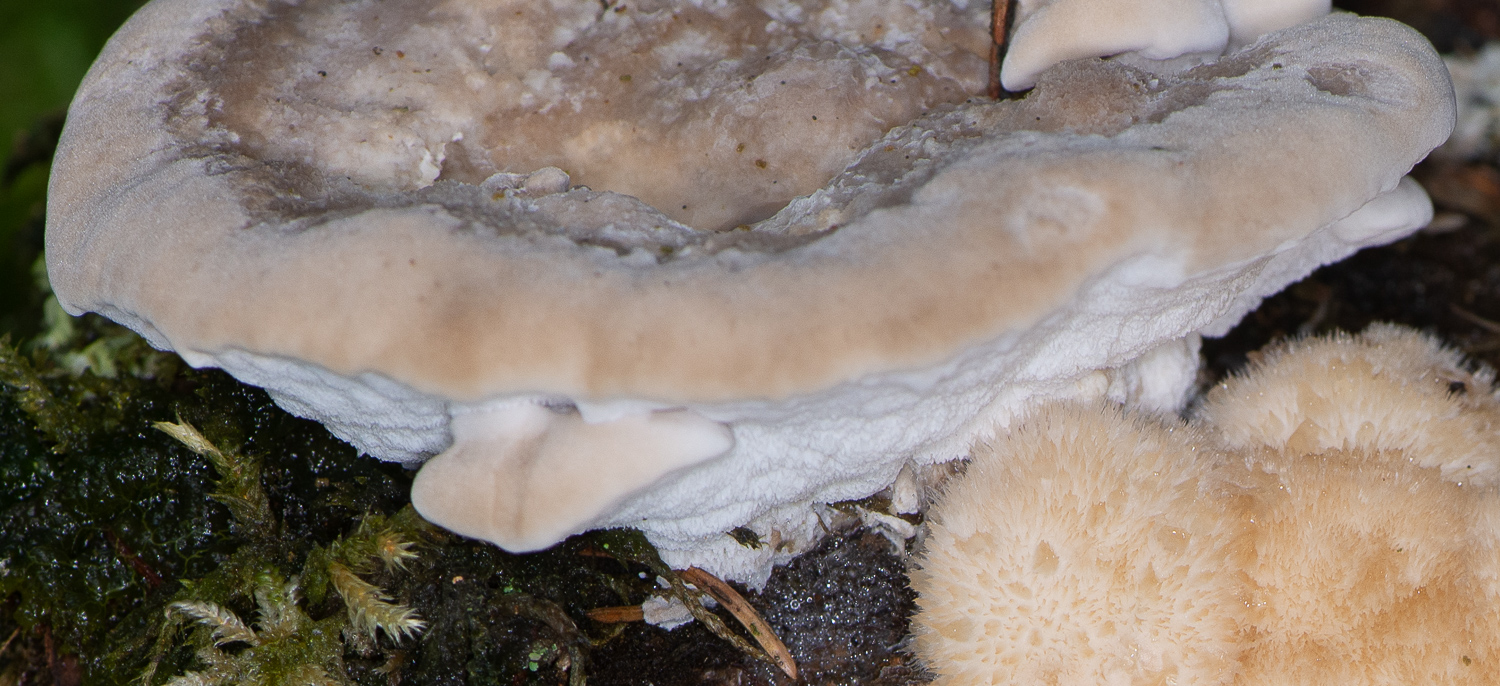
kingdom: Fungi
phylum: Basidiomycota
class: Agaricomycetes
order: Polyporales
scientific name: Polyporales
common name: poresvampordenen
